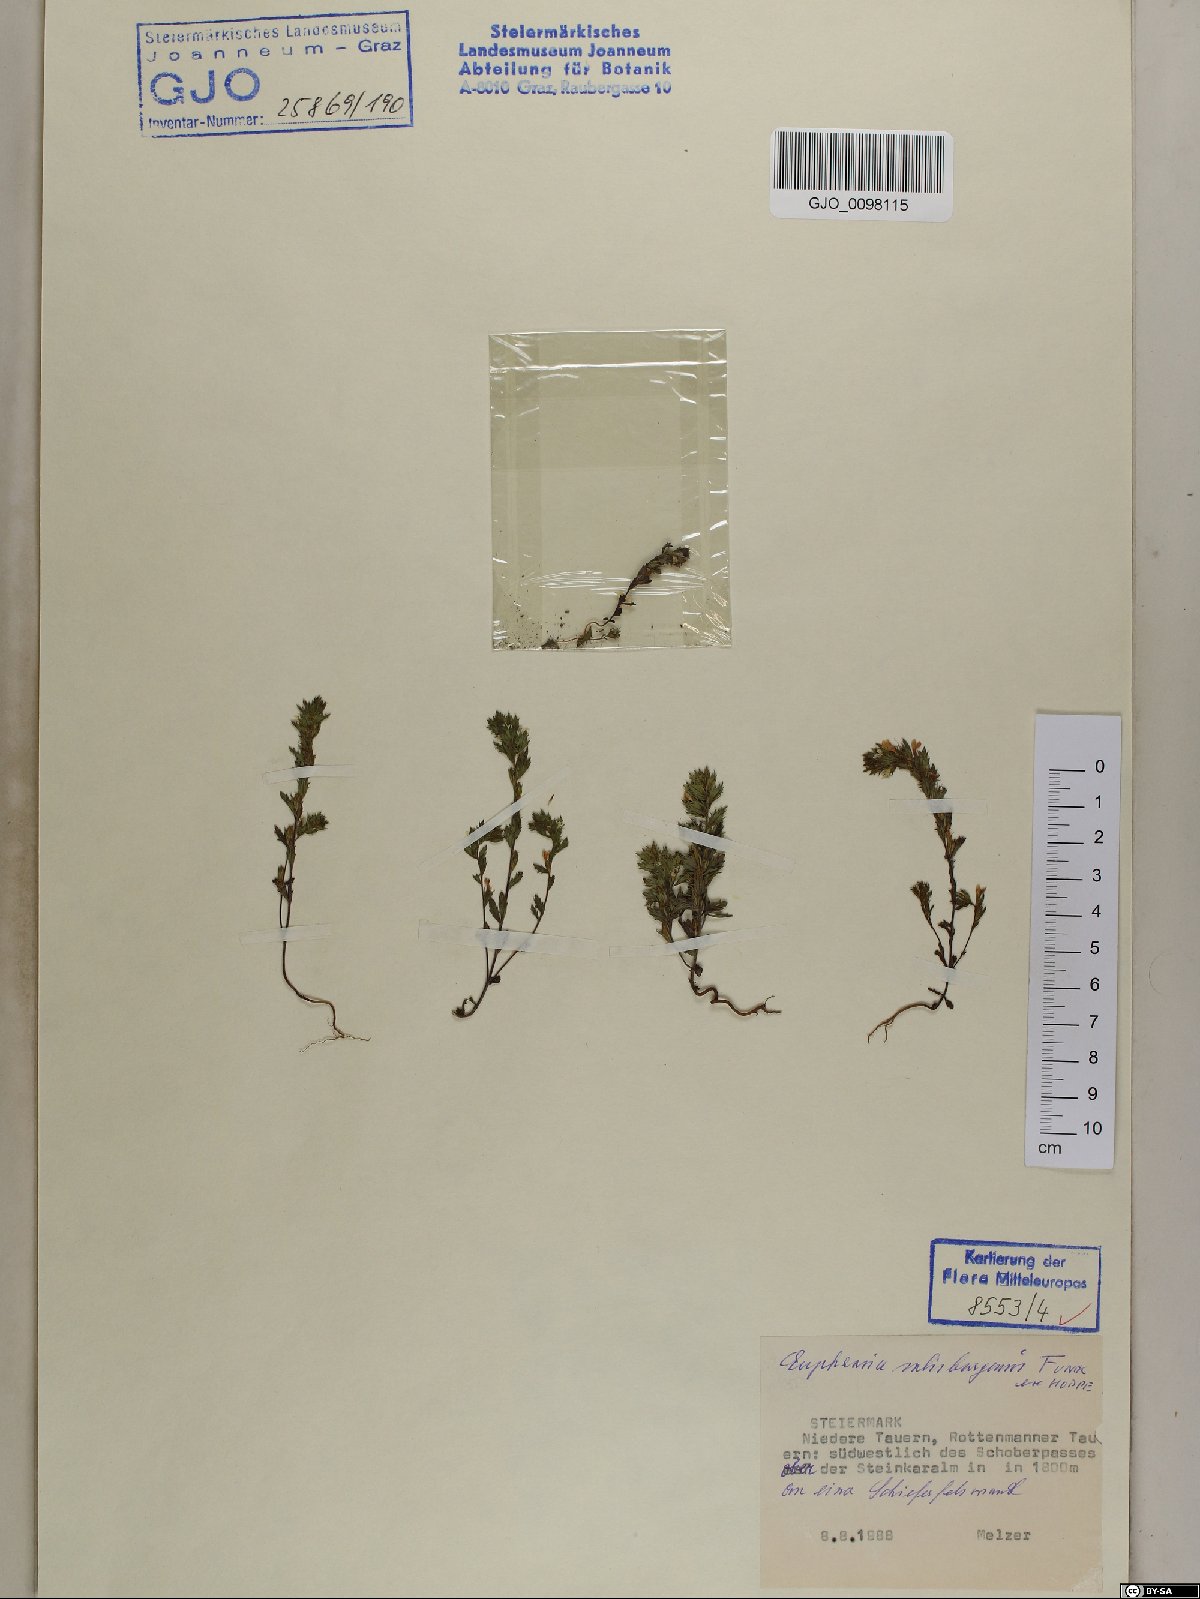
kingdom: Plantae
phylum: Tracheophyta
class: Magnoliopsida
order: Lamiales
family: Orobanchaceae
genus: Euphrasia
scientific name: Euphrasia salisburgensis
